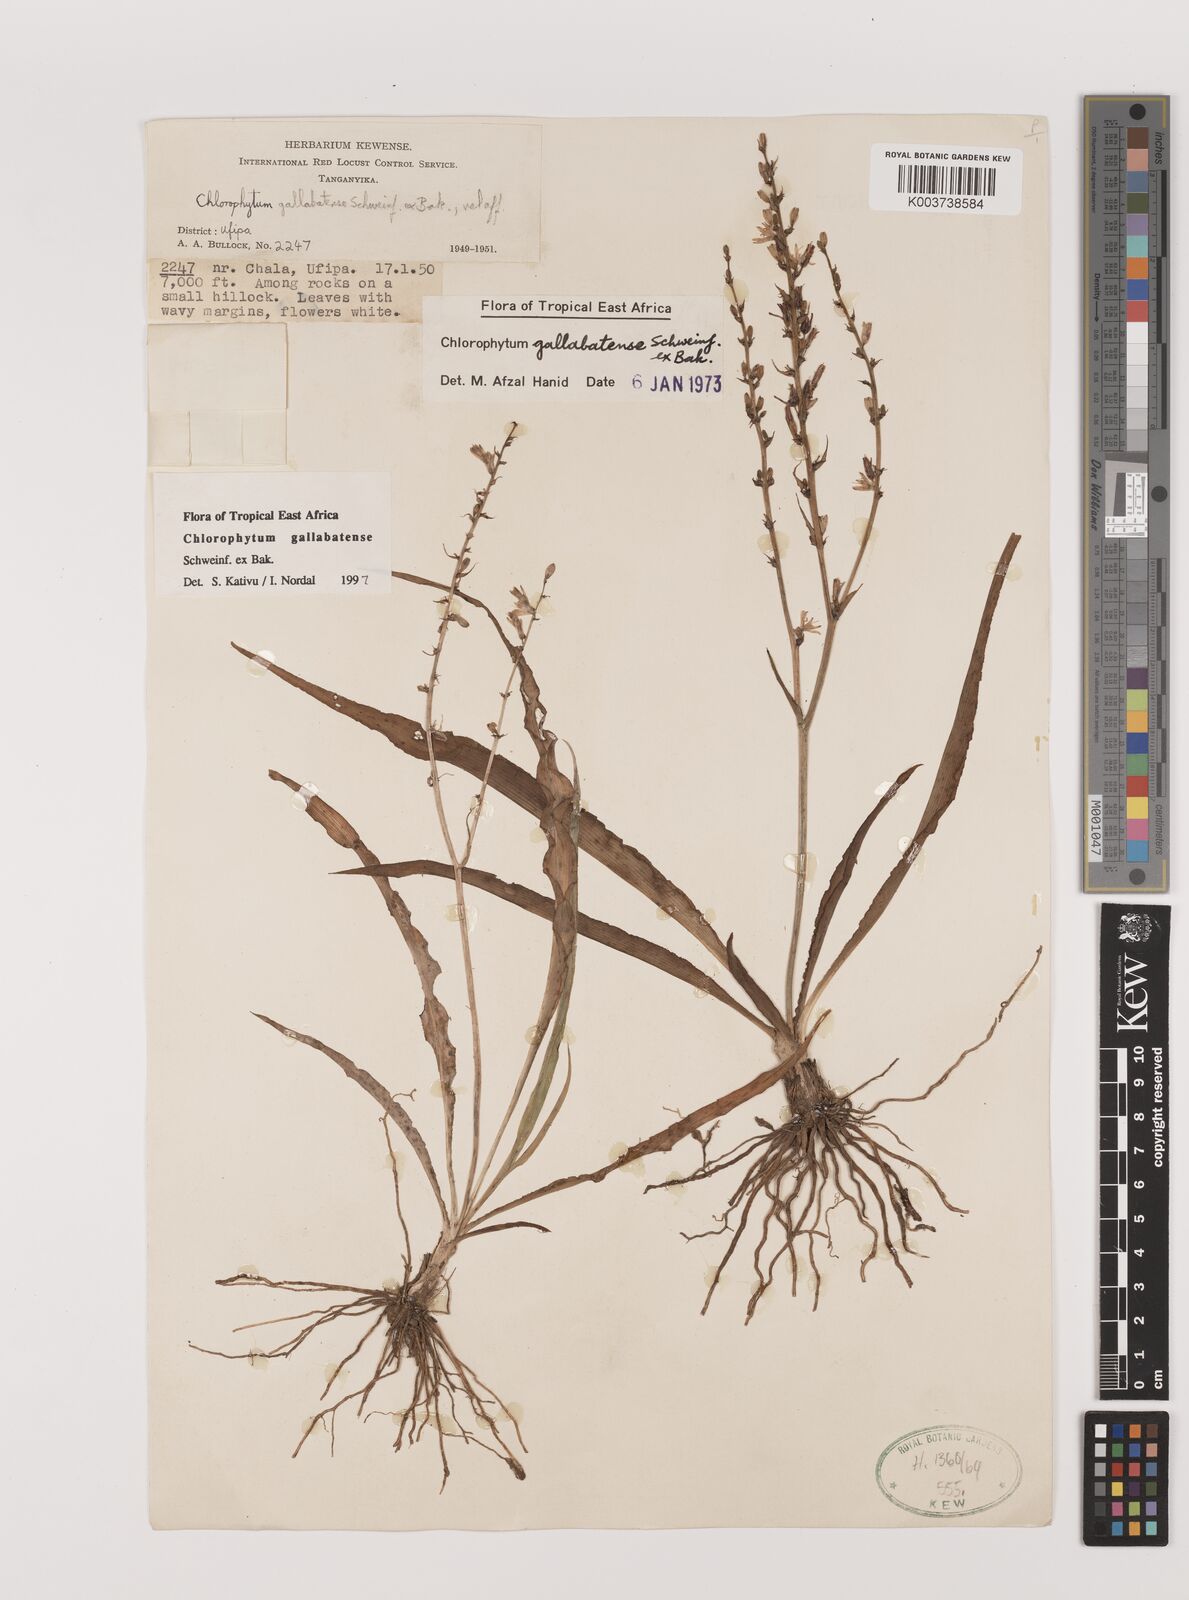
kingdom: Plantae
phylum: Tracheophyta
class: Liliopsida
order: Asparagales
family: Asparagaceae
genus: Chlorophytum
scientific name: Chlorophytum gallabatense
